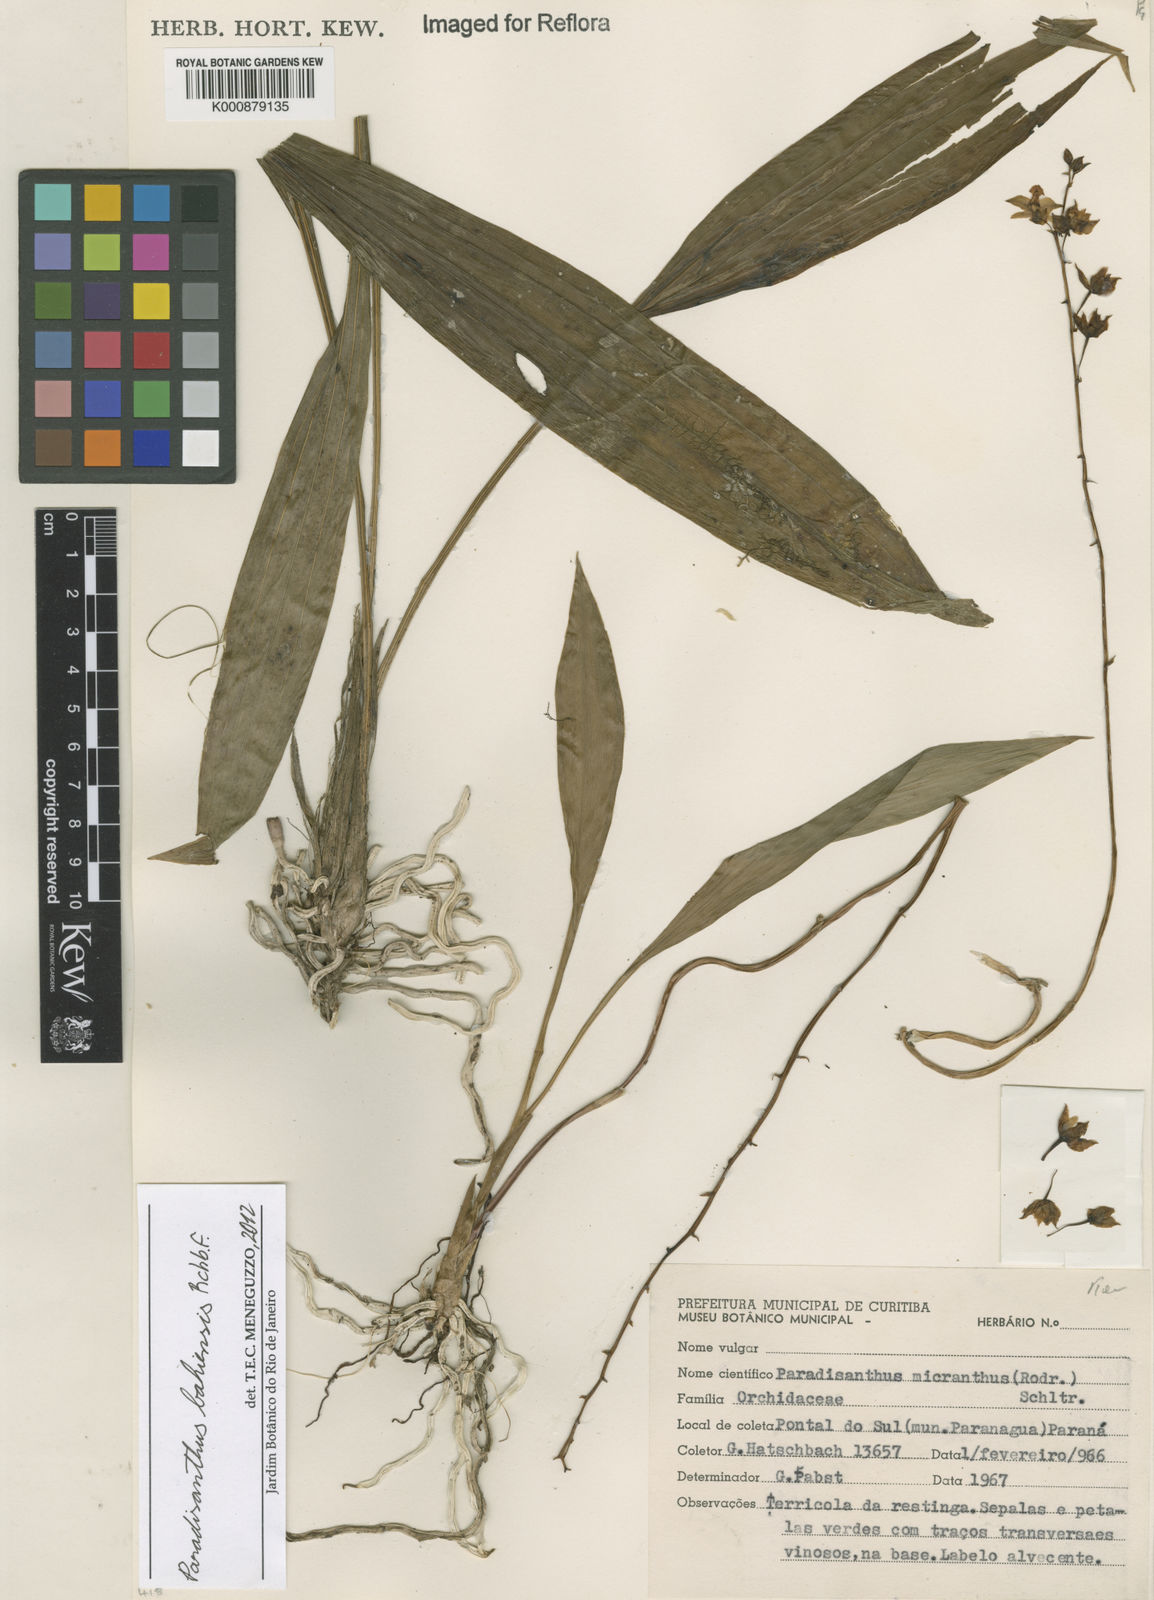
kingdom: Plantae
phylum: Tracheophyta
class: Liliopsida
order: Asparagales
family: Orchidaceae
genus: Paradisanthus
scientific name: Paradisanthus bahiensis
